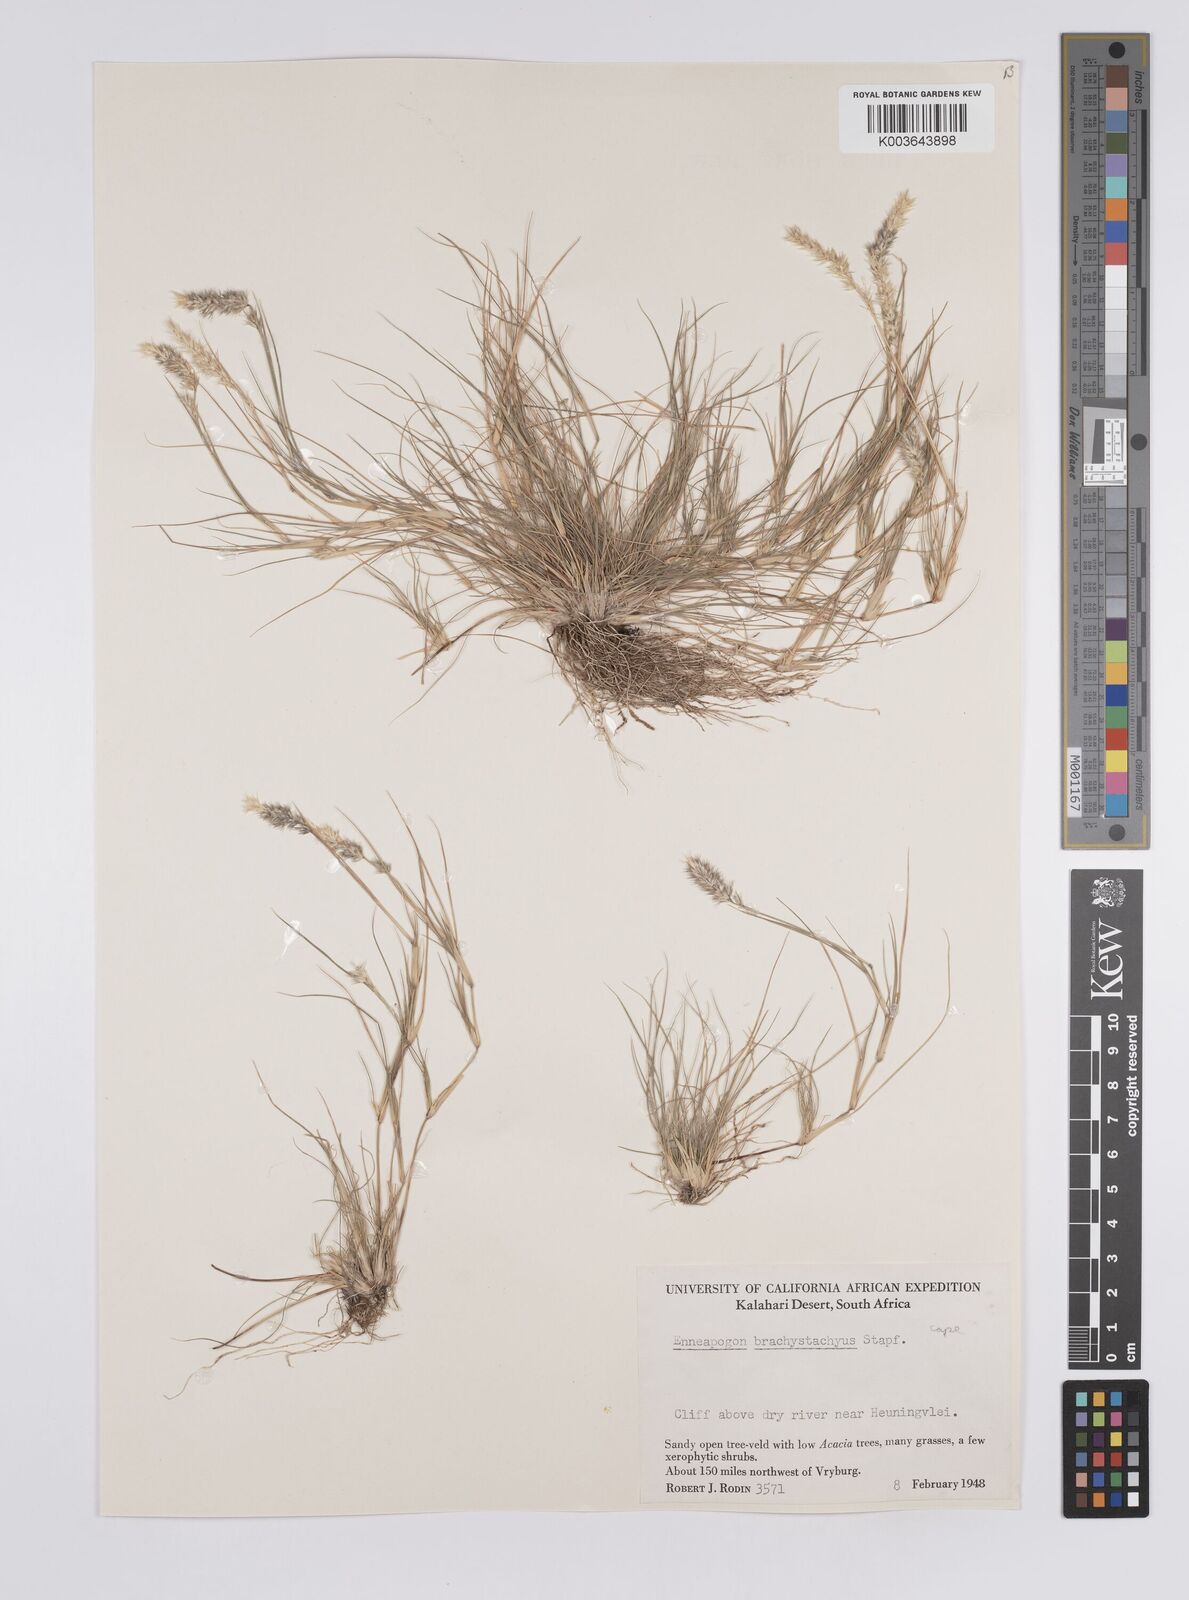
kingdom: Plantae
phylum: Tracheophyta
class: Liliopsida
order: Poales
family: Poaceae
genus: Enneapogon
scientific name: Enneapogon desvauxii
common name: Feather pappus grass
